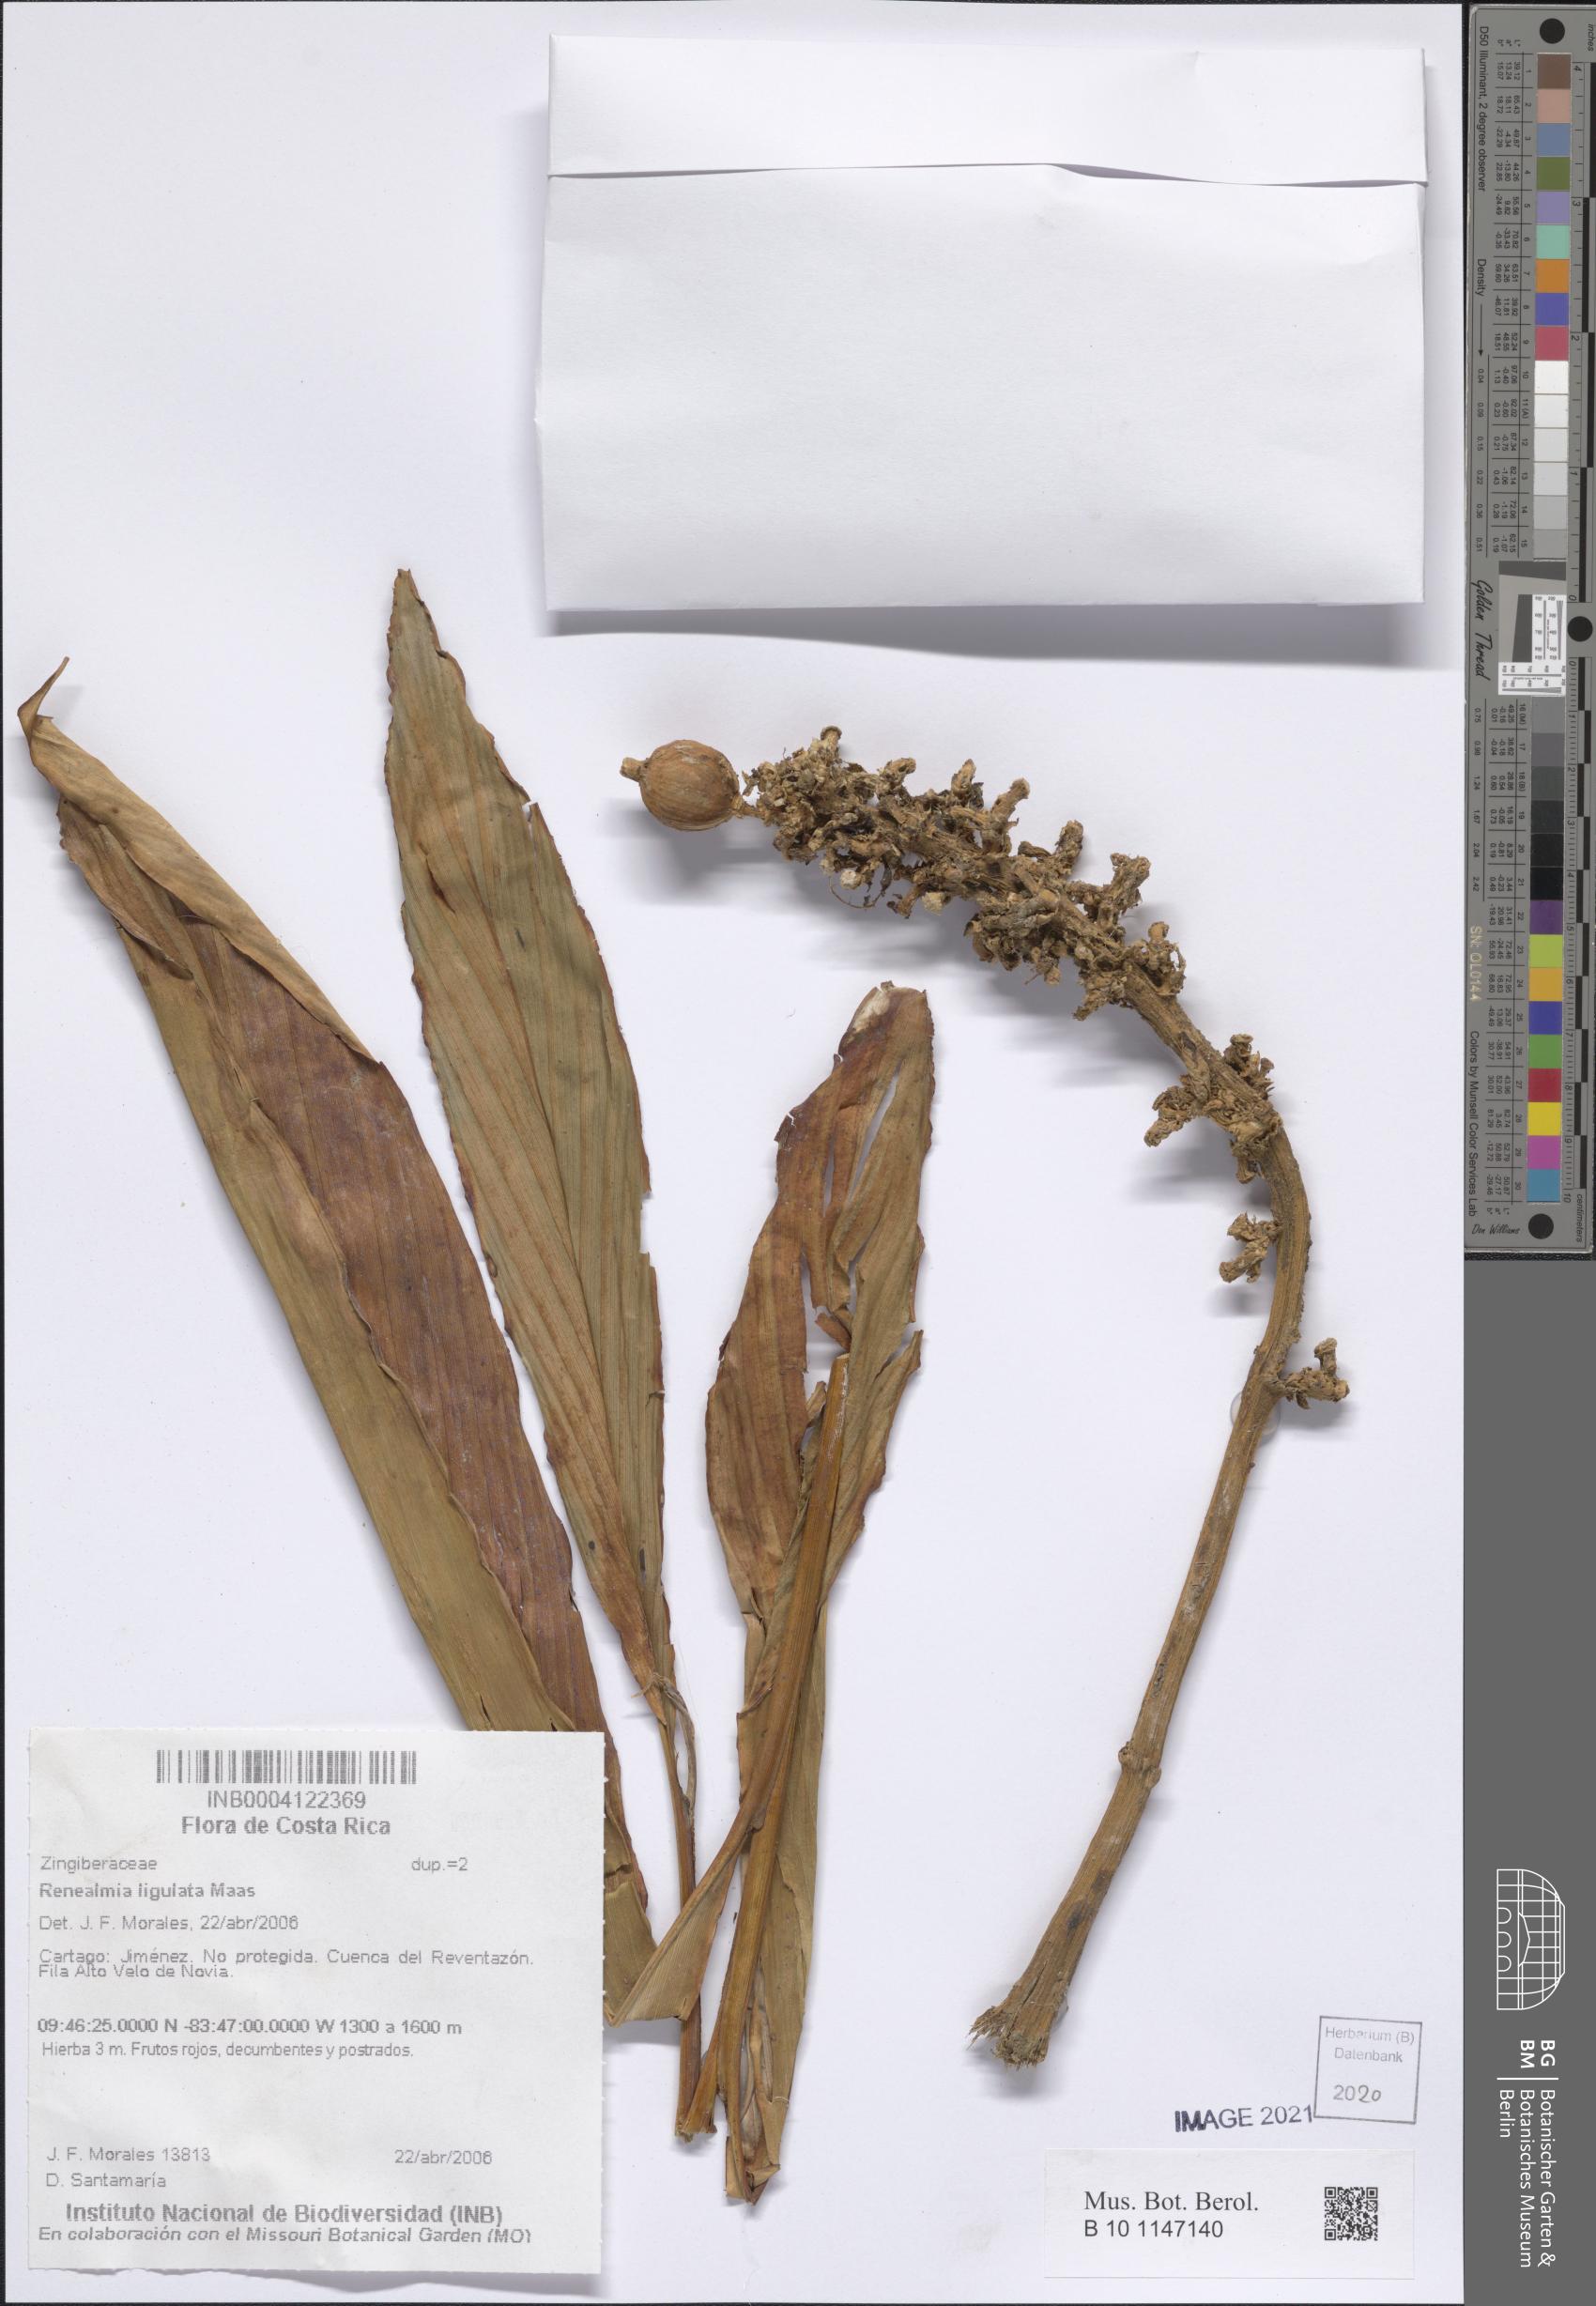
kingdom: Plantae
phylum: Tracheophyta
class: Liliopsida
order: Zingiberales
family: Zingiberaceae
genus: Renealmia
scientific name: Renealmia ligulata
